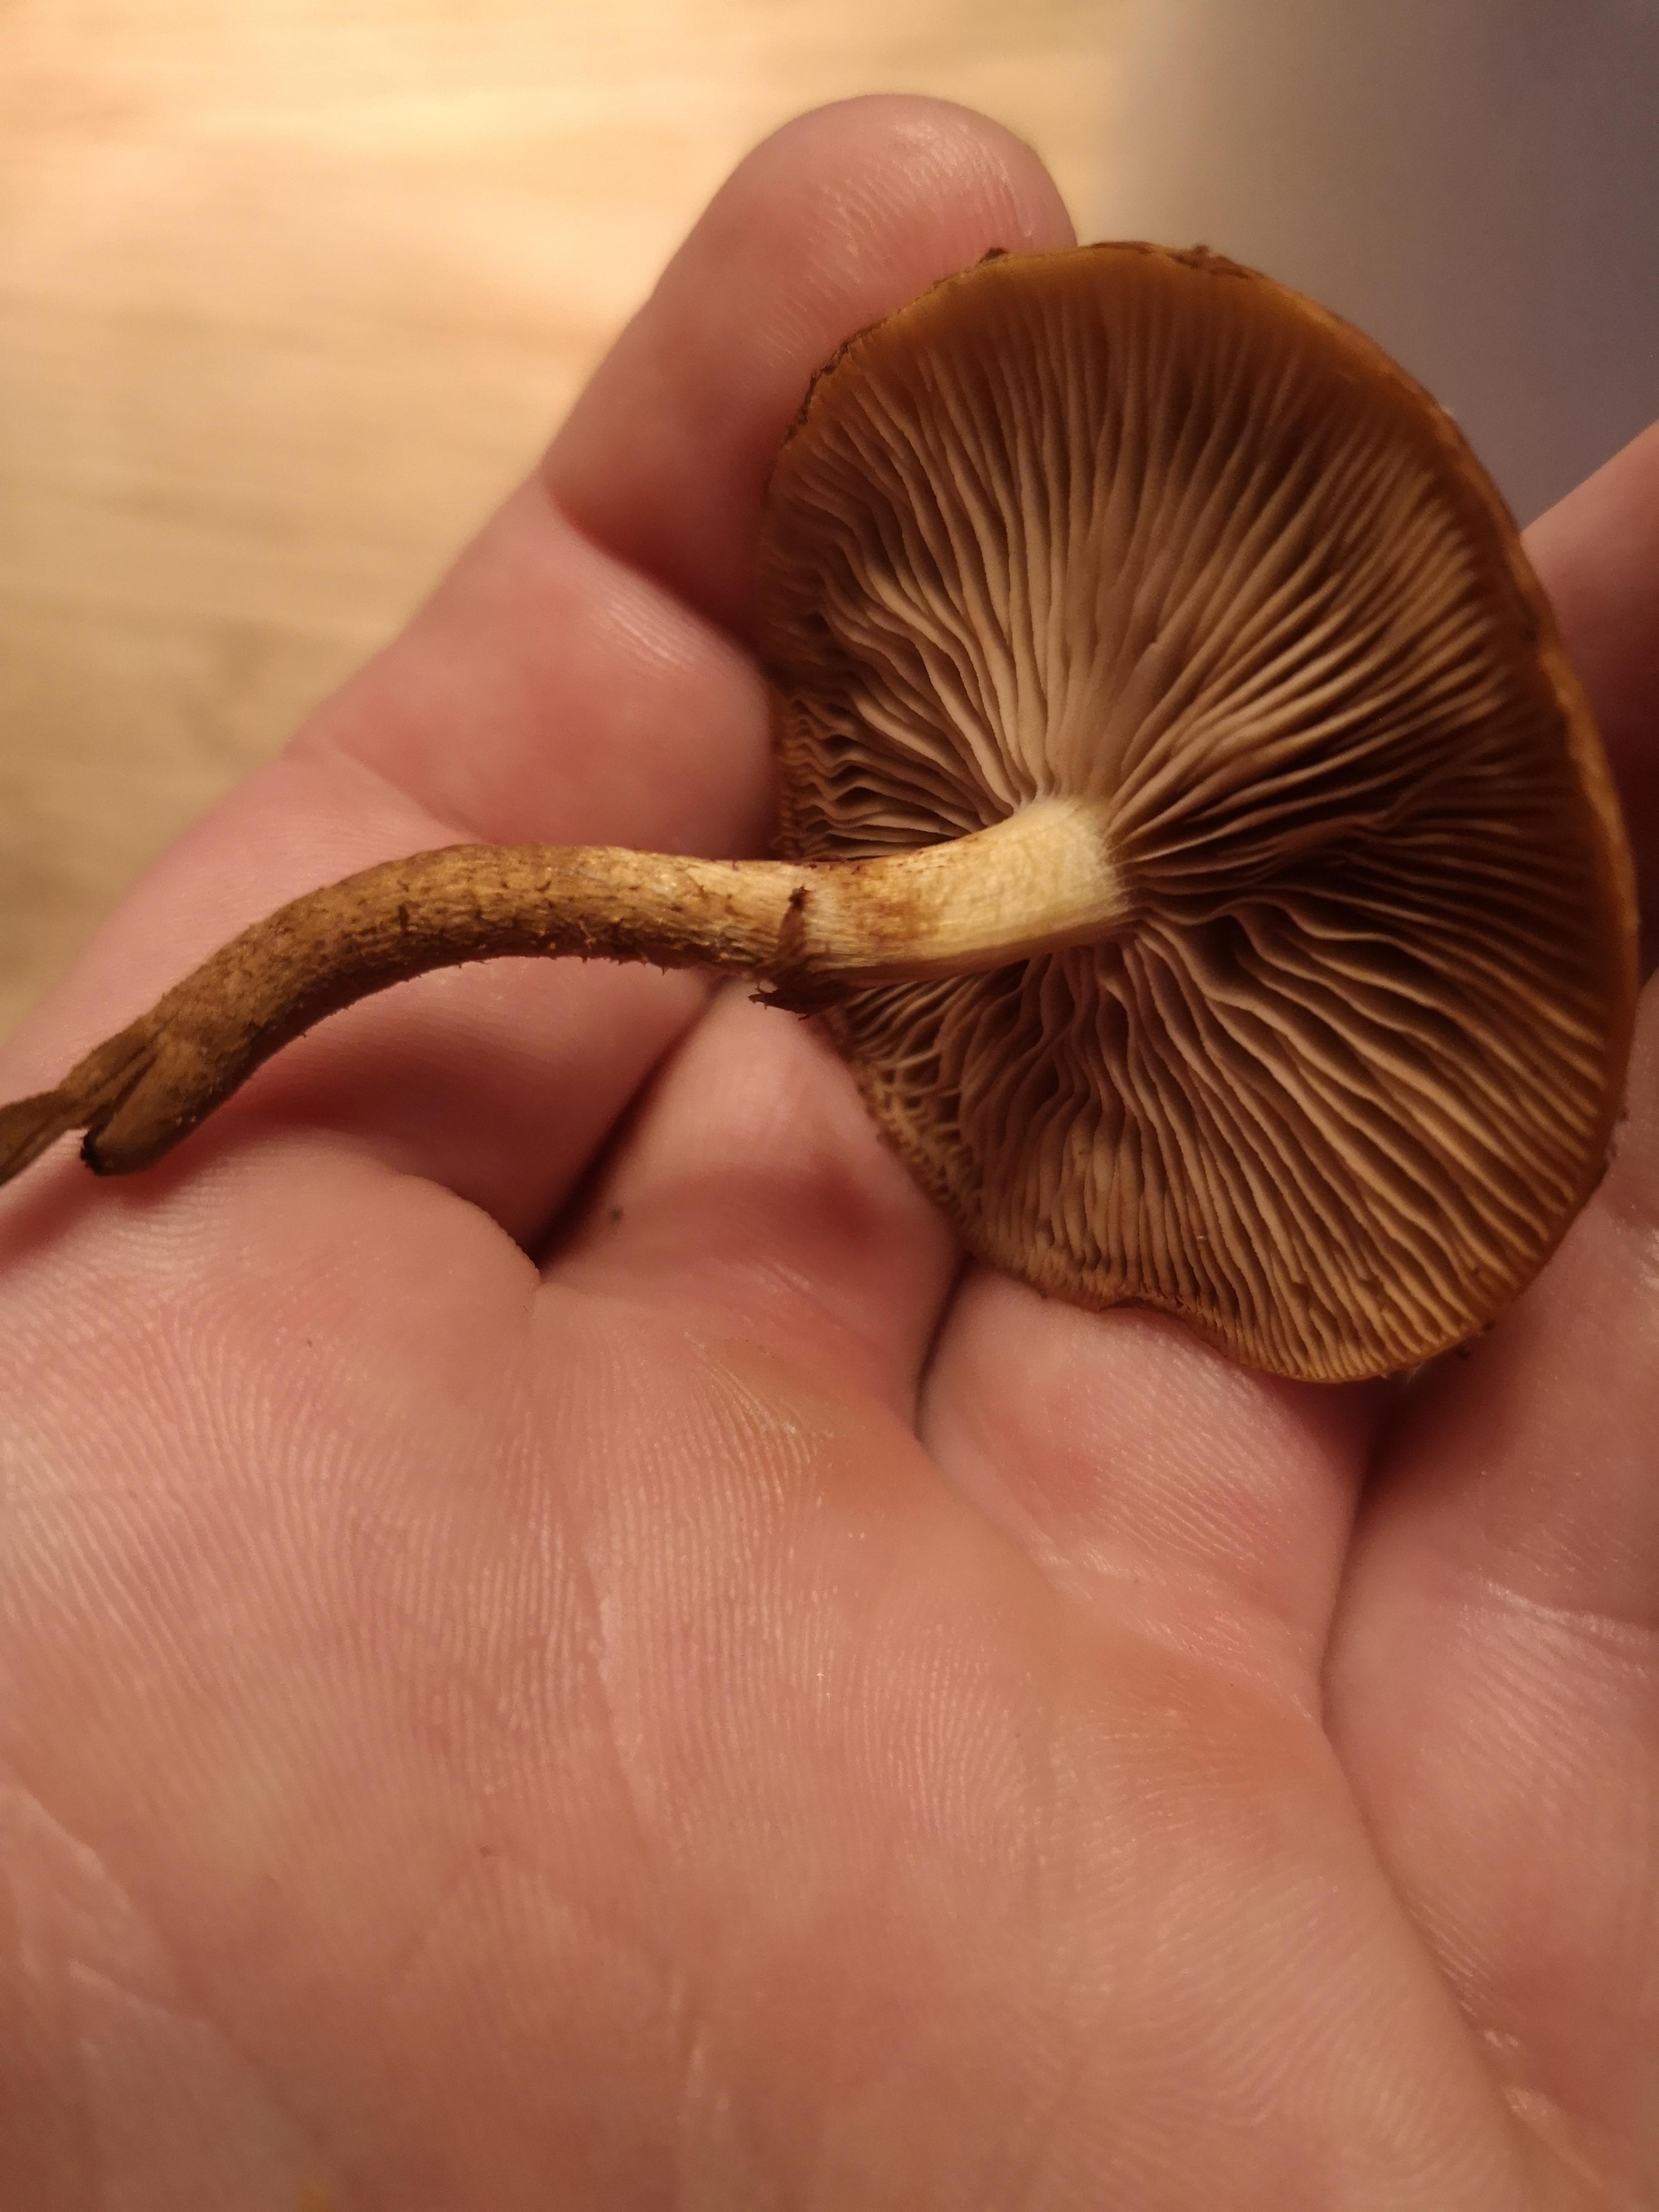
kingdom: Fungi
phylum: Basidiomycota
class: Agaricomycetes
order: Agaricales
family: Strophariaceae
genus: Kuehneromyces
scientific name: Kuehneromyces mutabilis
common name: foranderlig skælhat
